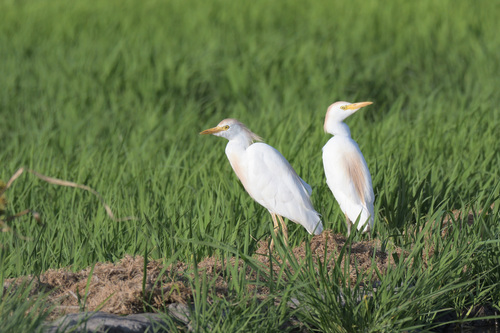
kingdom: Animalia
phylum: Chordata
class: Aves
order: Pelecaniformes
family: Ardeidae
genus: Bubulcus
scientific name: Bubulcus ibis
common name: Cattle egret
